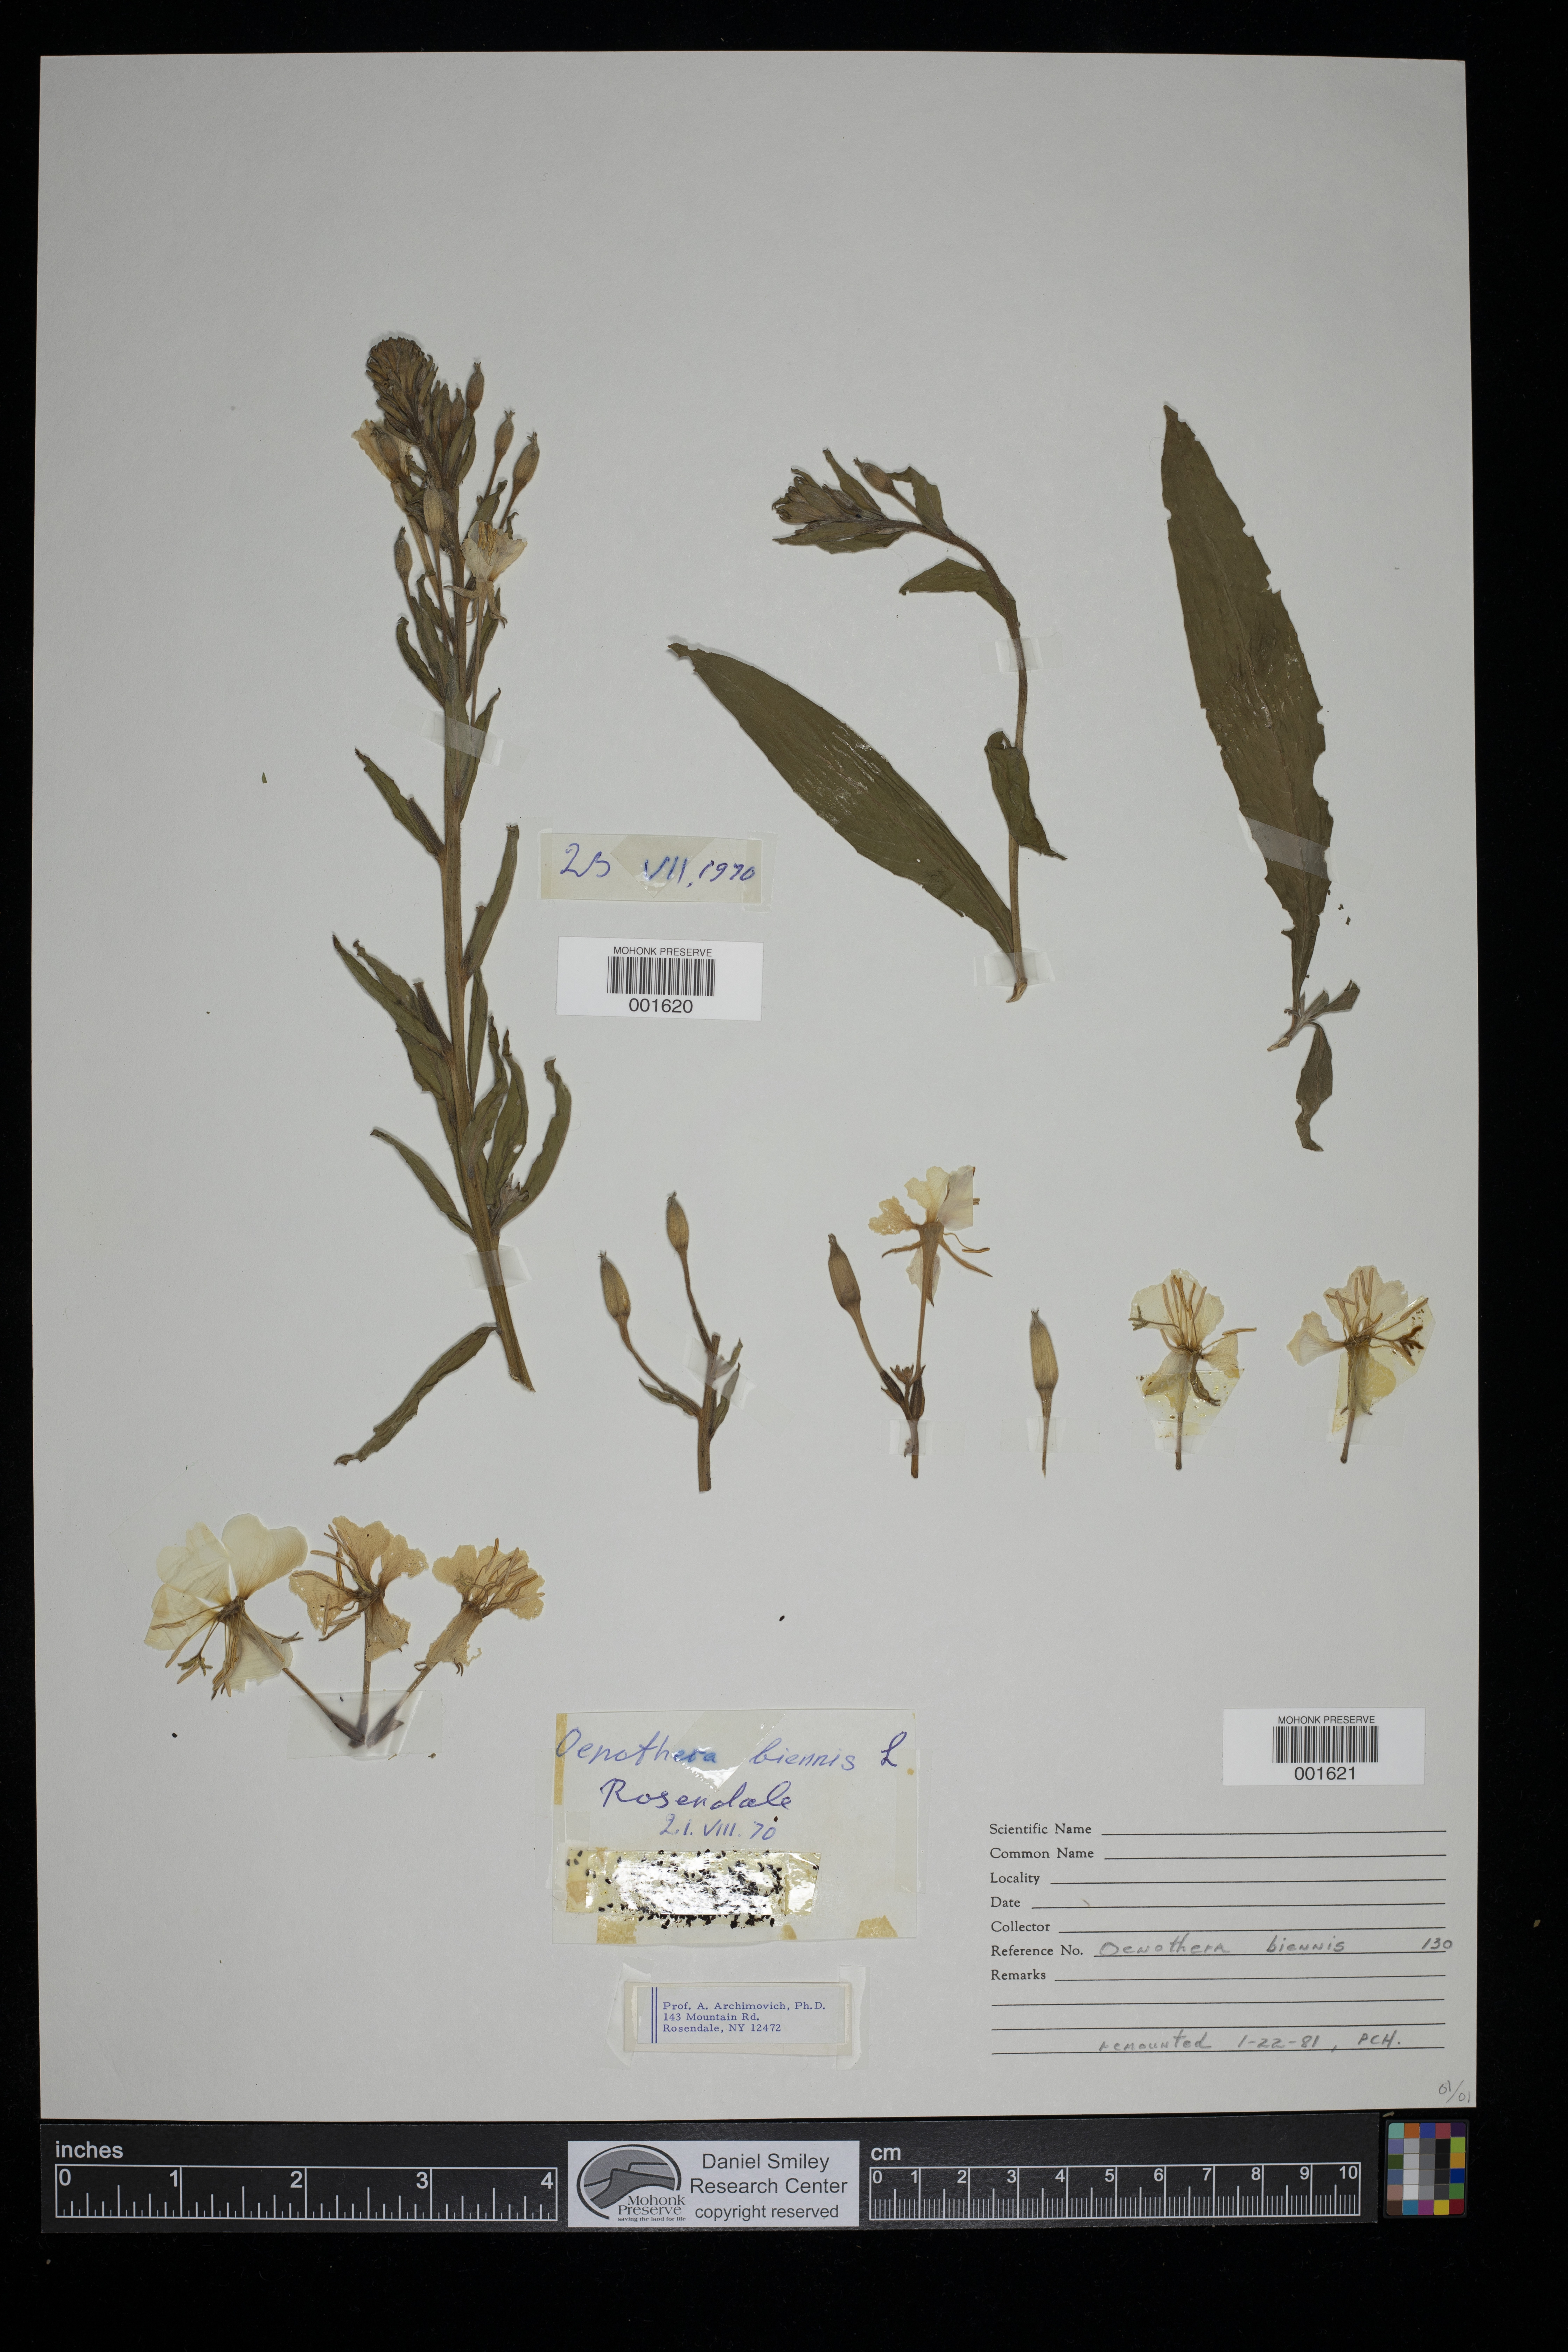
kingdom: Plantae
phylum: Tracheophyta
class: Magnoliopsida
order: Myrtales
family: Onagraceae
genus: Oenothera
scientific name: Oenothera biennis
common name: Common evening-primrose
